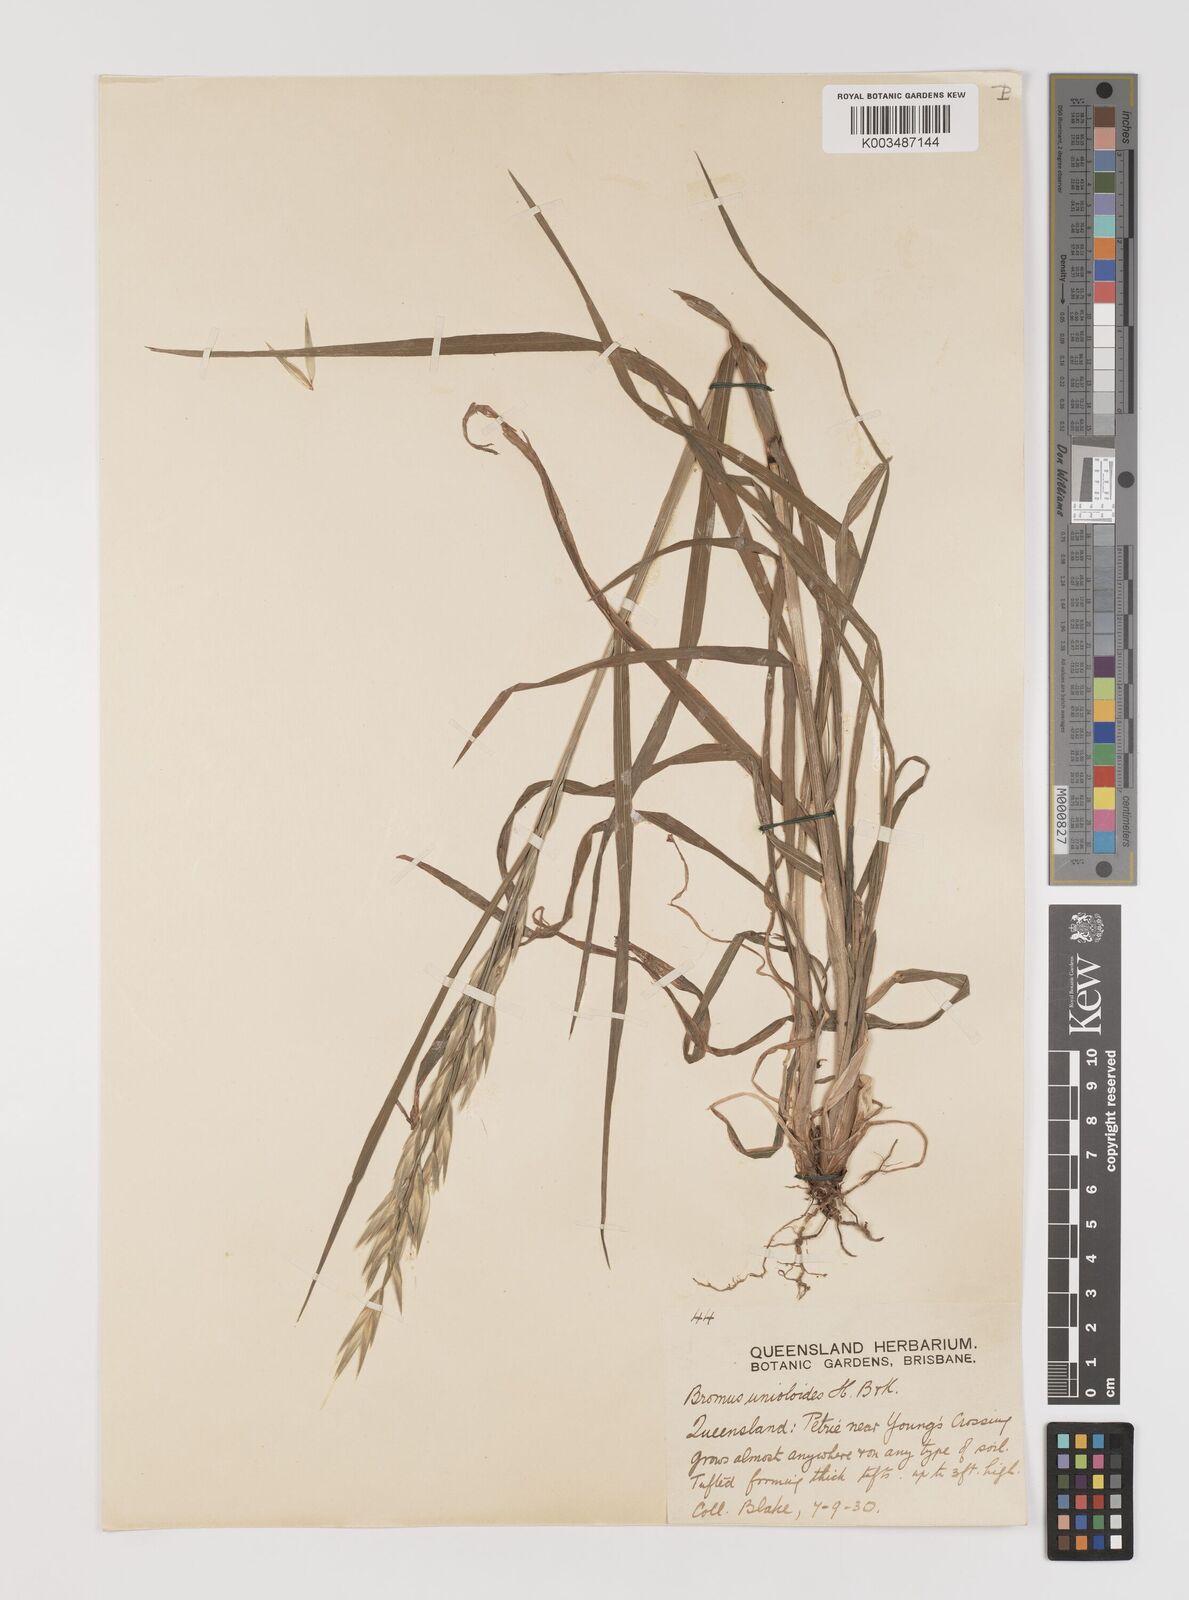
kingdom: Plantae
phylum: Tracheophyta
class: Liliopsida
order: Poales
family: Poaceae
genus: Bromus
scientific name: Bromus catharticus
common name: Rescuegrass
